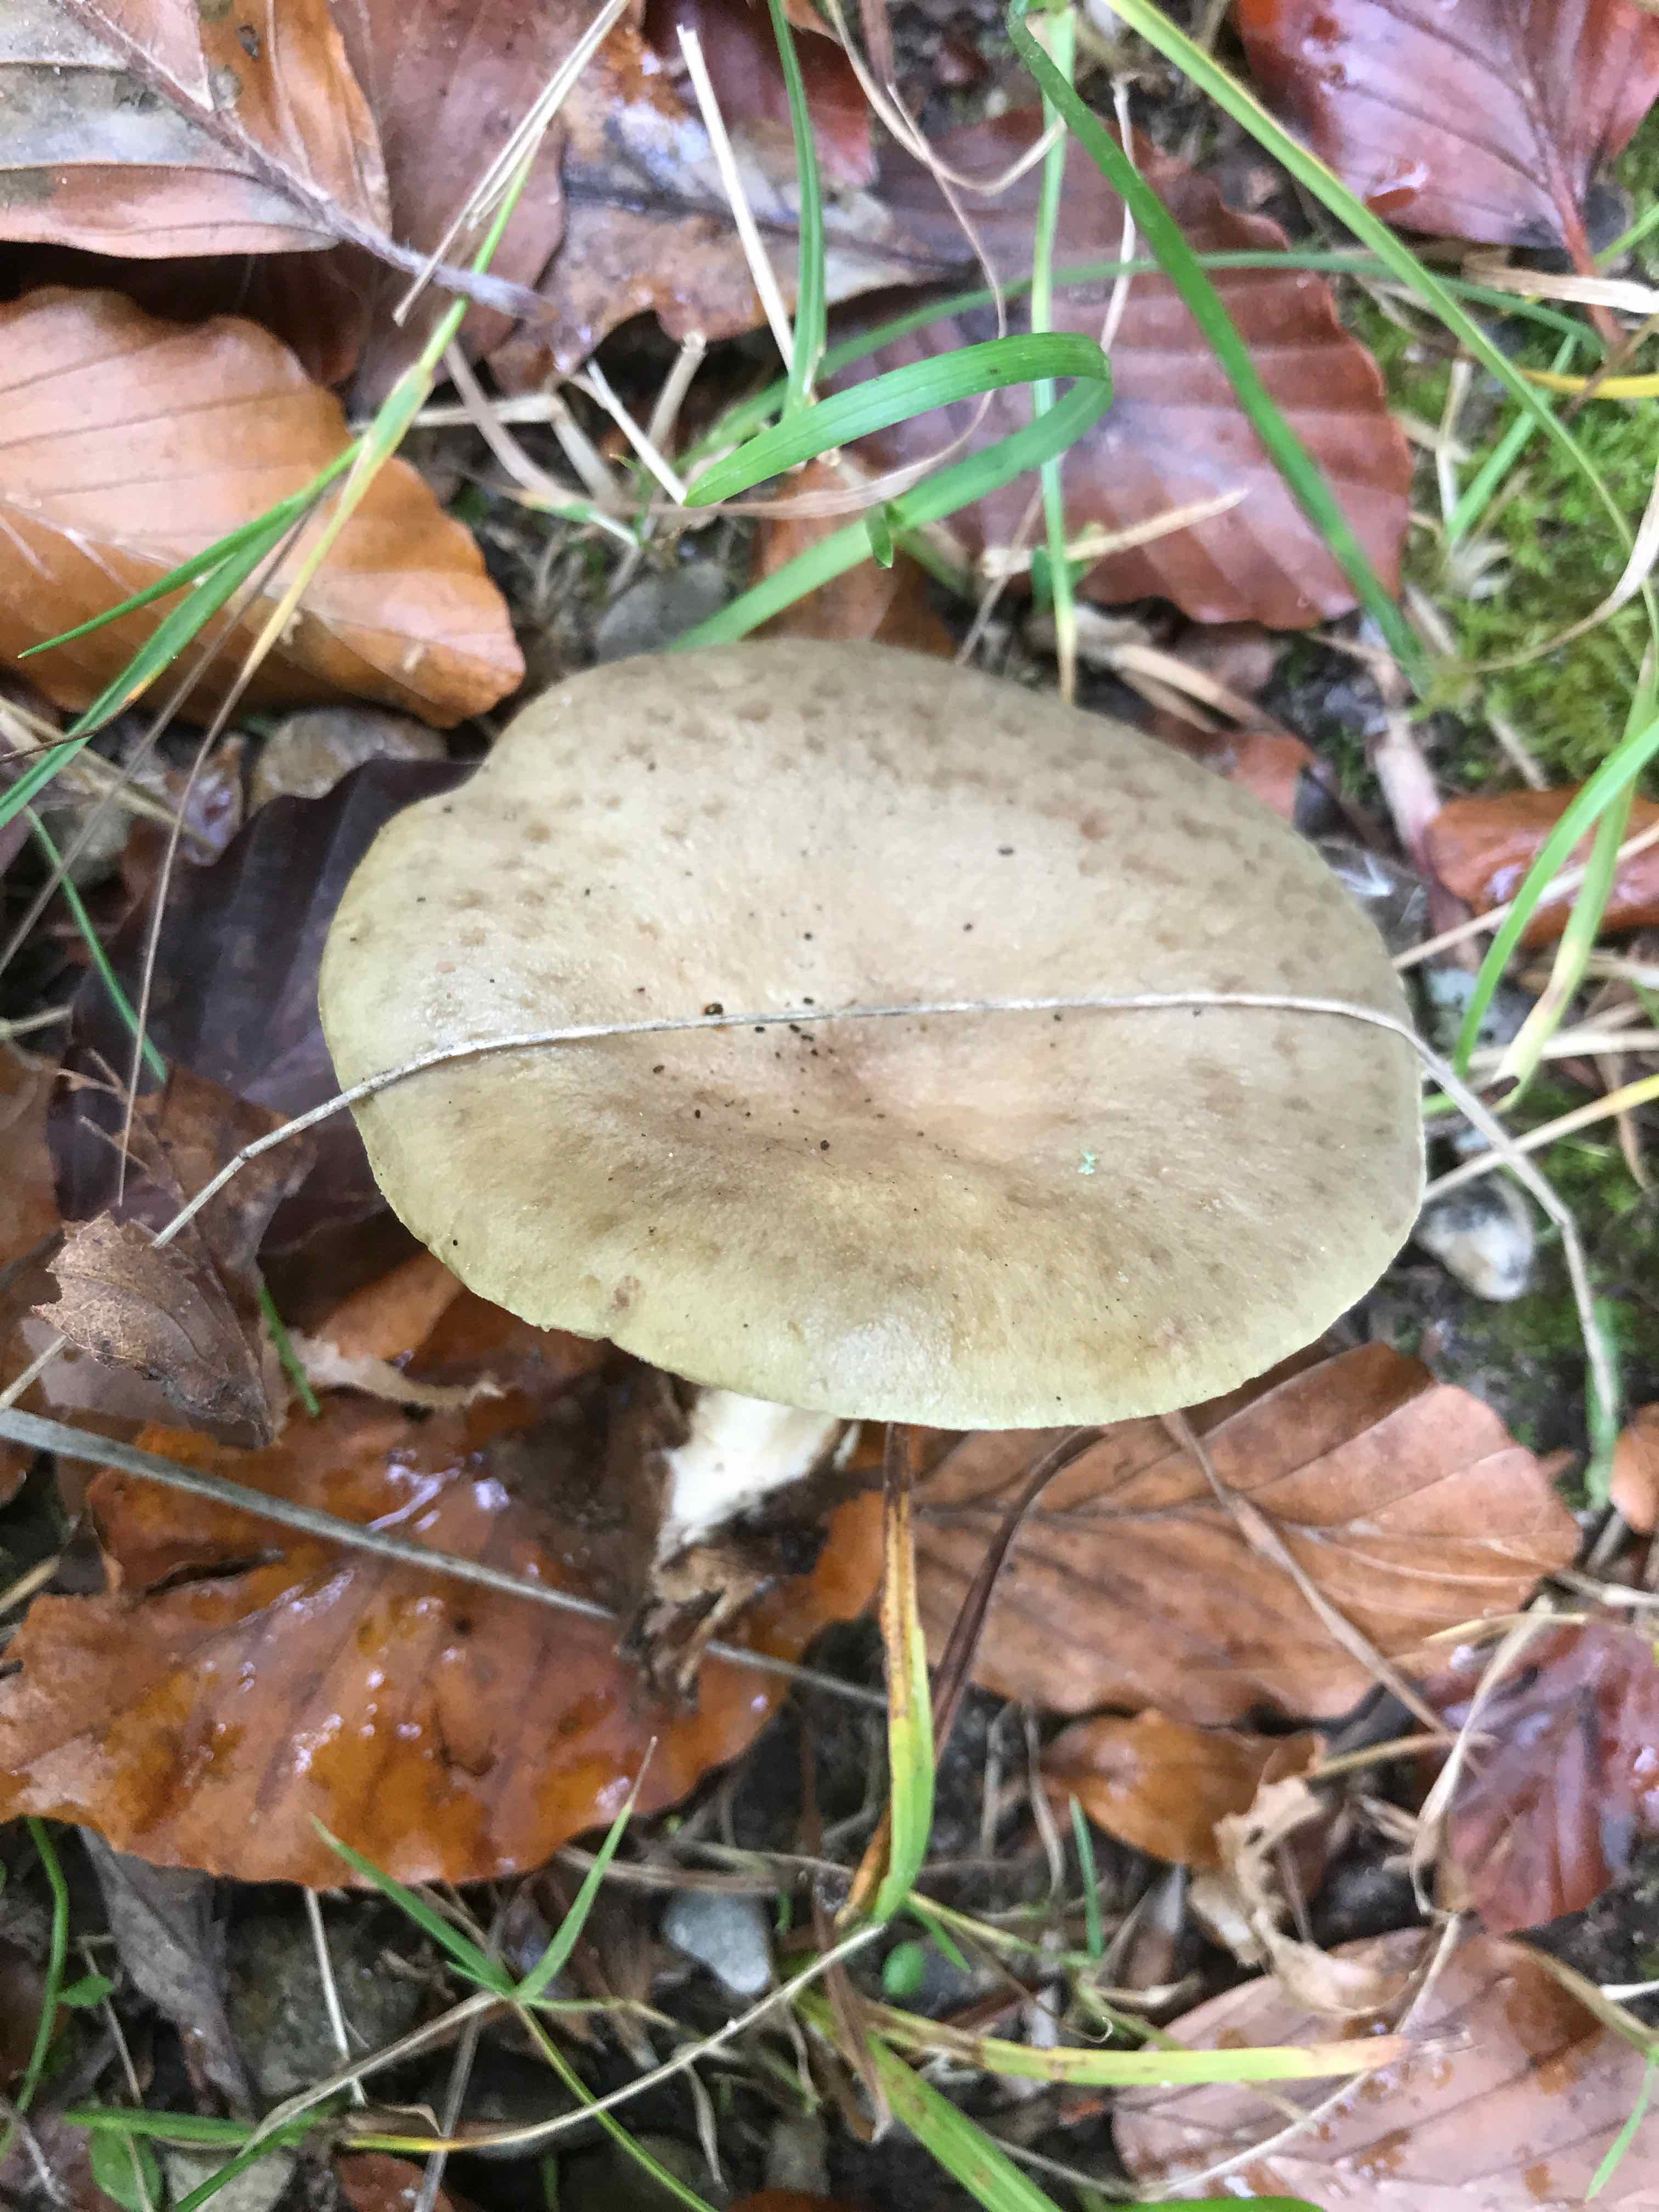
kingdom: Fungi
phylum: Basidiomycota
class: Agaricomycetes
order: Russulales
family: Russulaceae
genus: Lactarius
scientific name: Lactarius blennius
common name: dråbeplettet mælkehat
